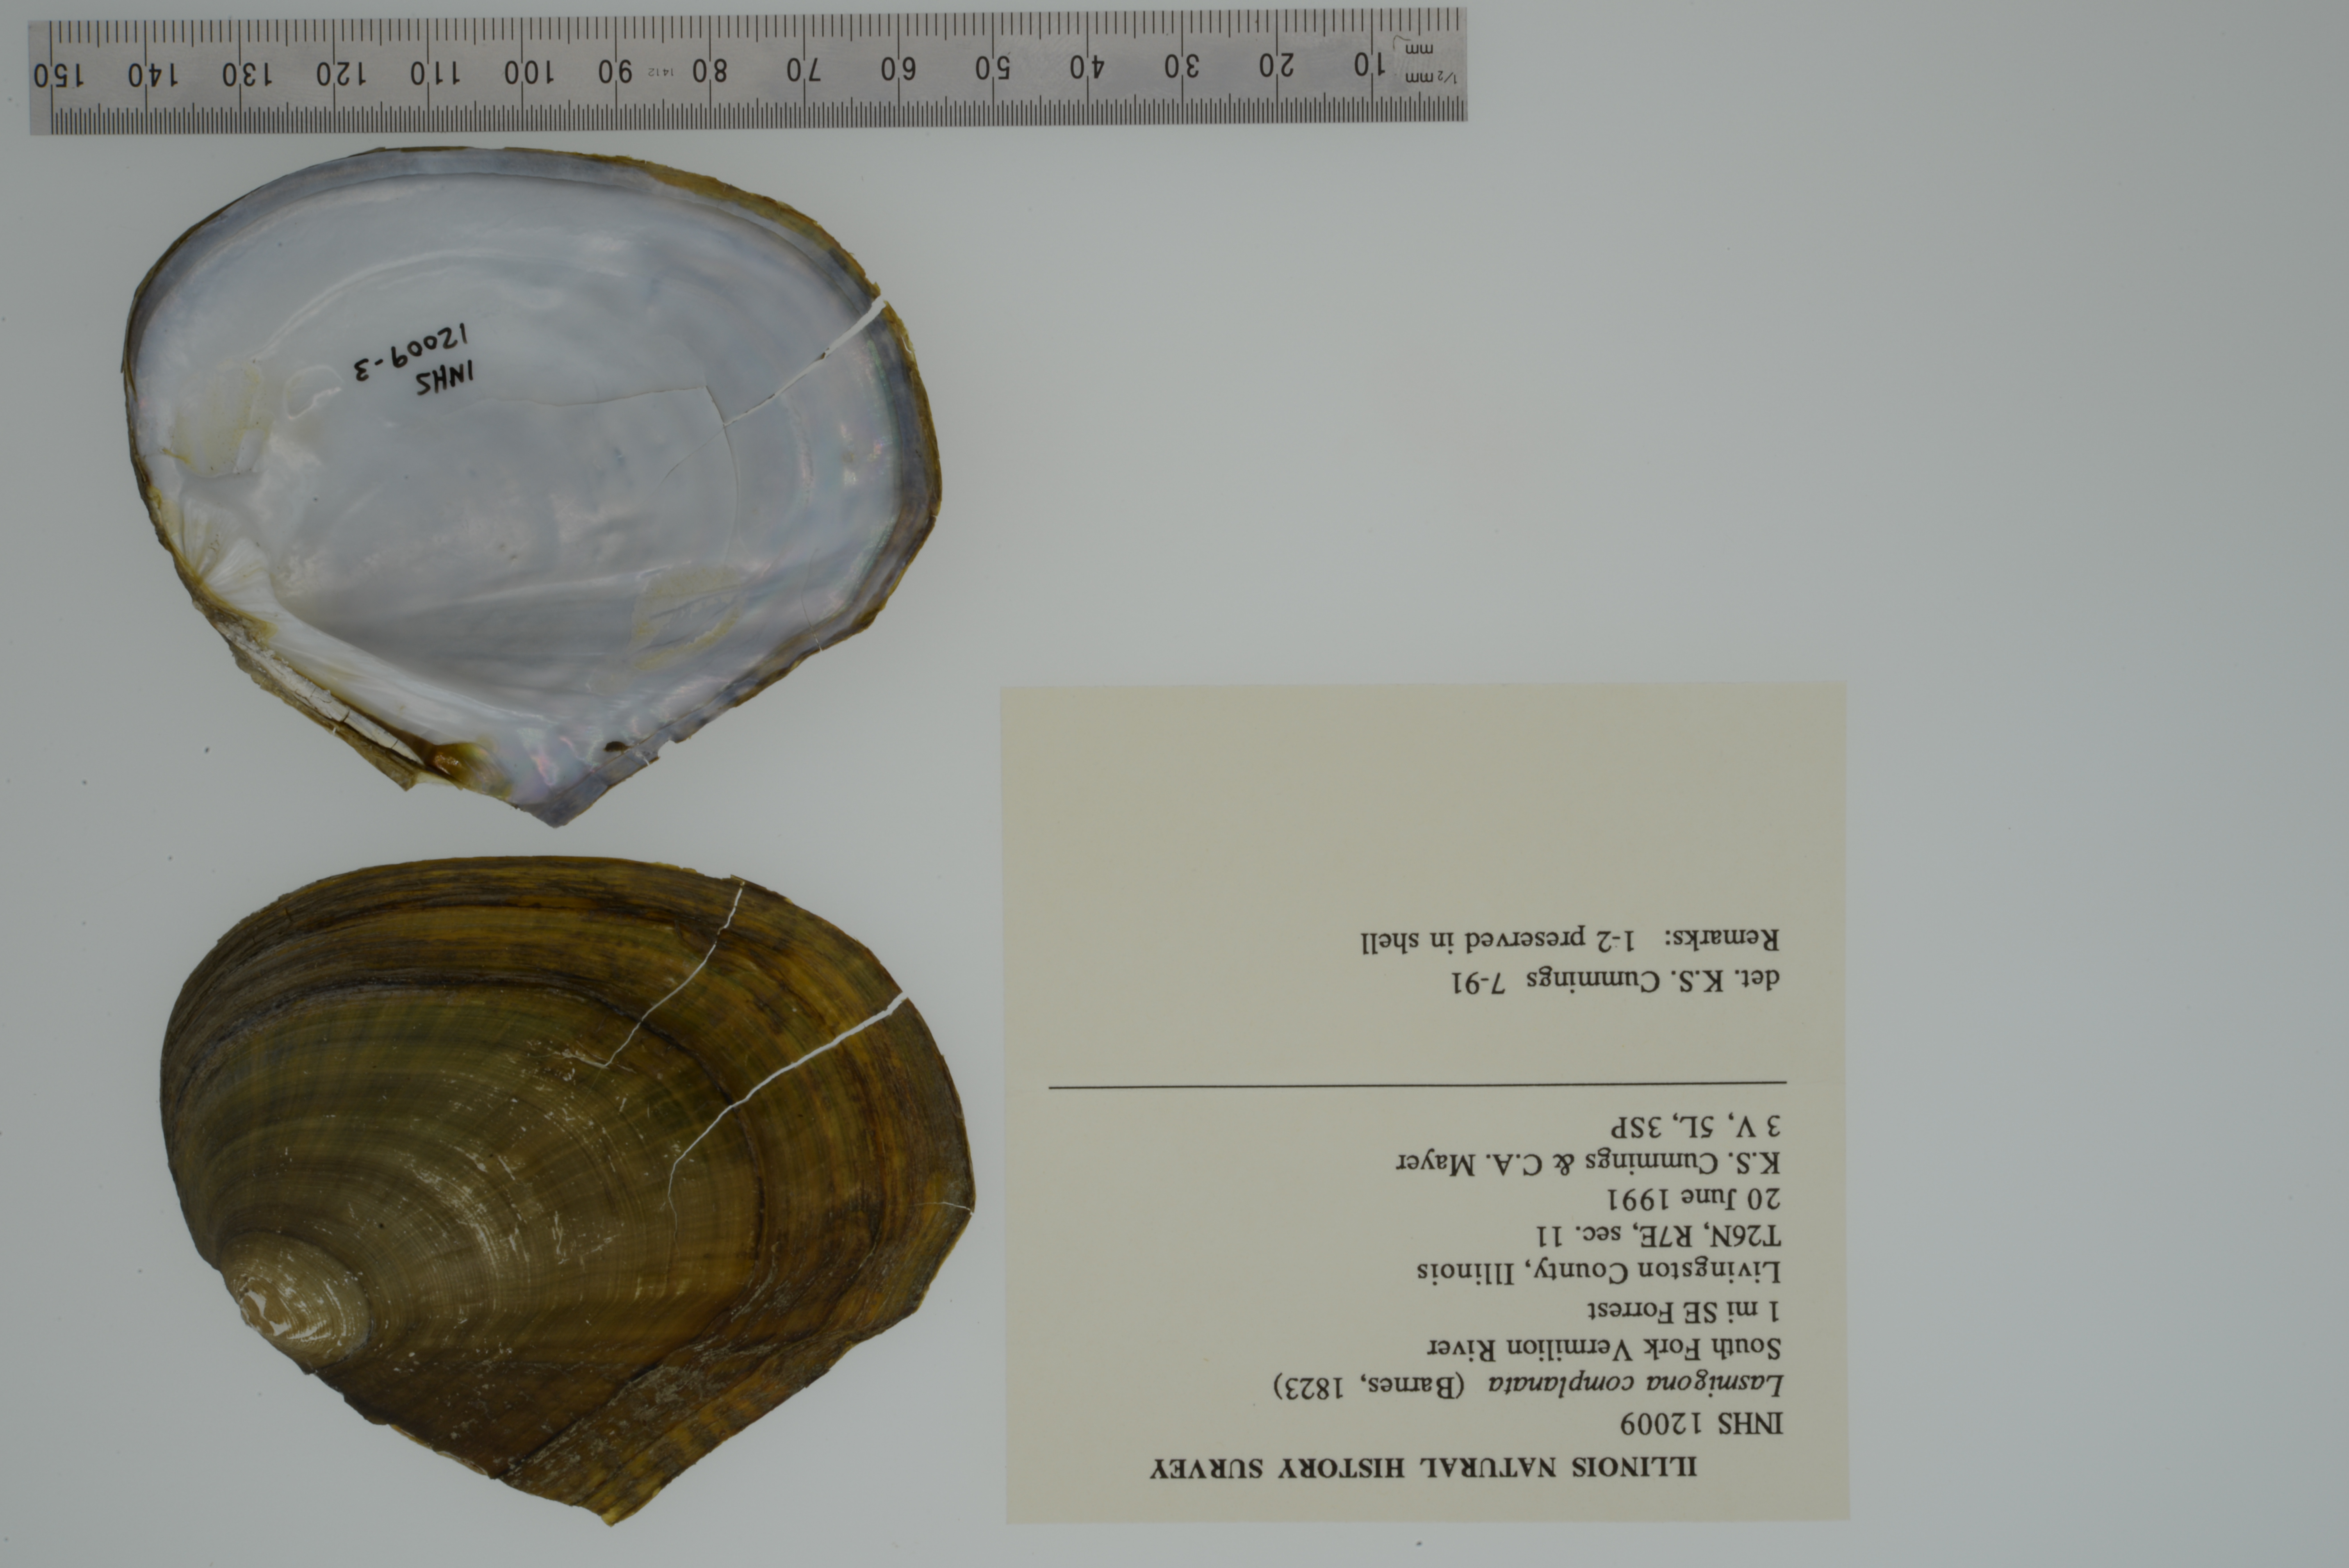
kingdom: Animalia
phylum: Mollusca
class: Bivalvia
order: Unionida
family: Unionidae
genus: Lasmigona
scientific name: Lasmigona complanata
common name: White heelsplitter
